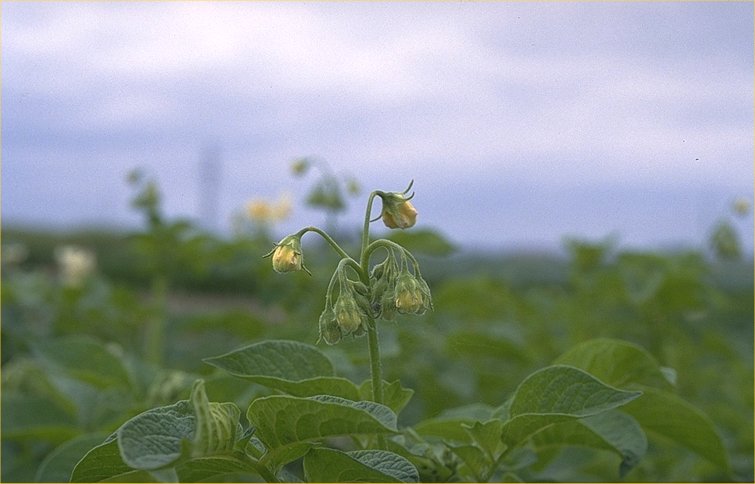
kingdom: Plantae
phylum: Tracheophyta
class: Magnoliopsida
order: Solanales
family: Solanaceae
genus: Solanum
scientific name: Solanum tuberosum
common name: Potato
